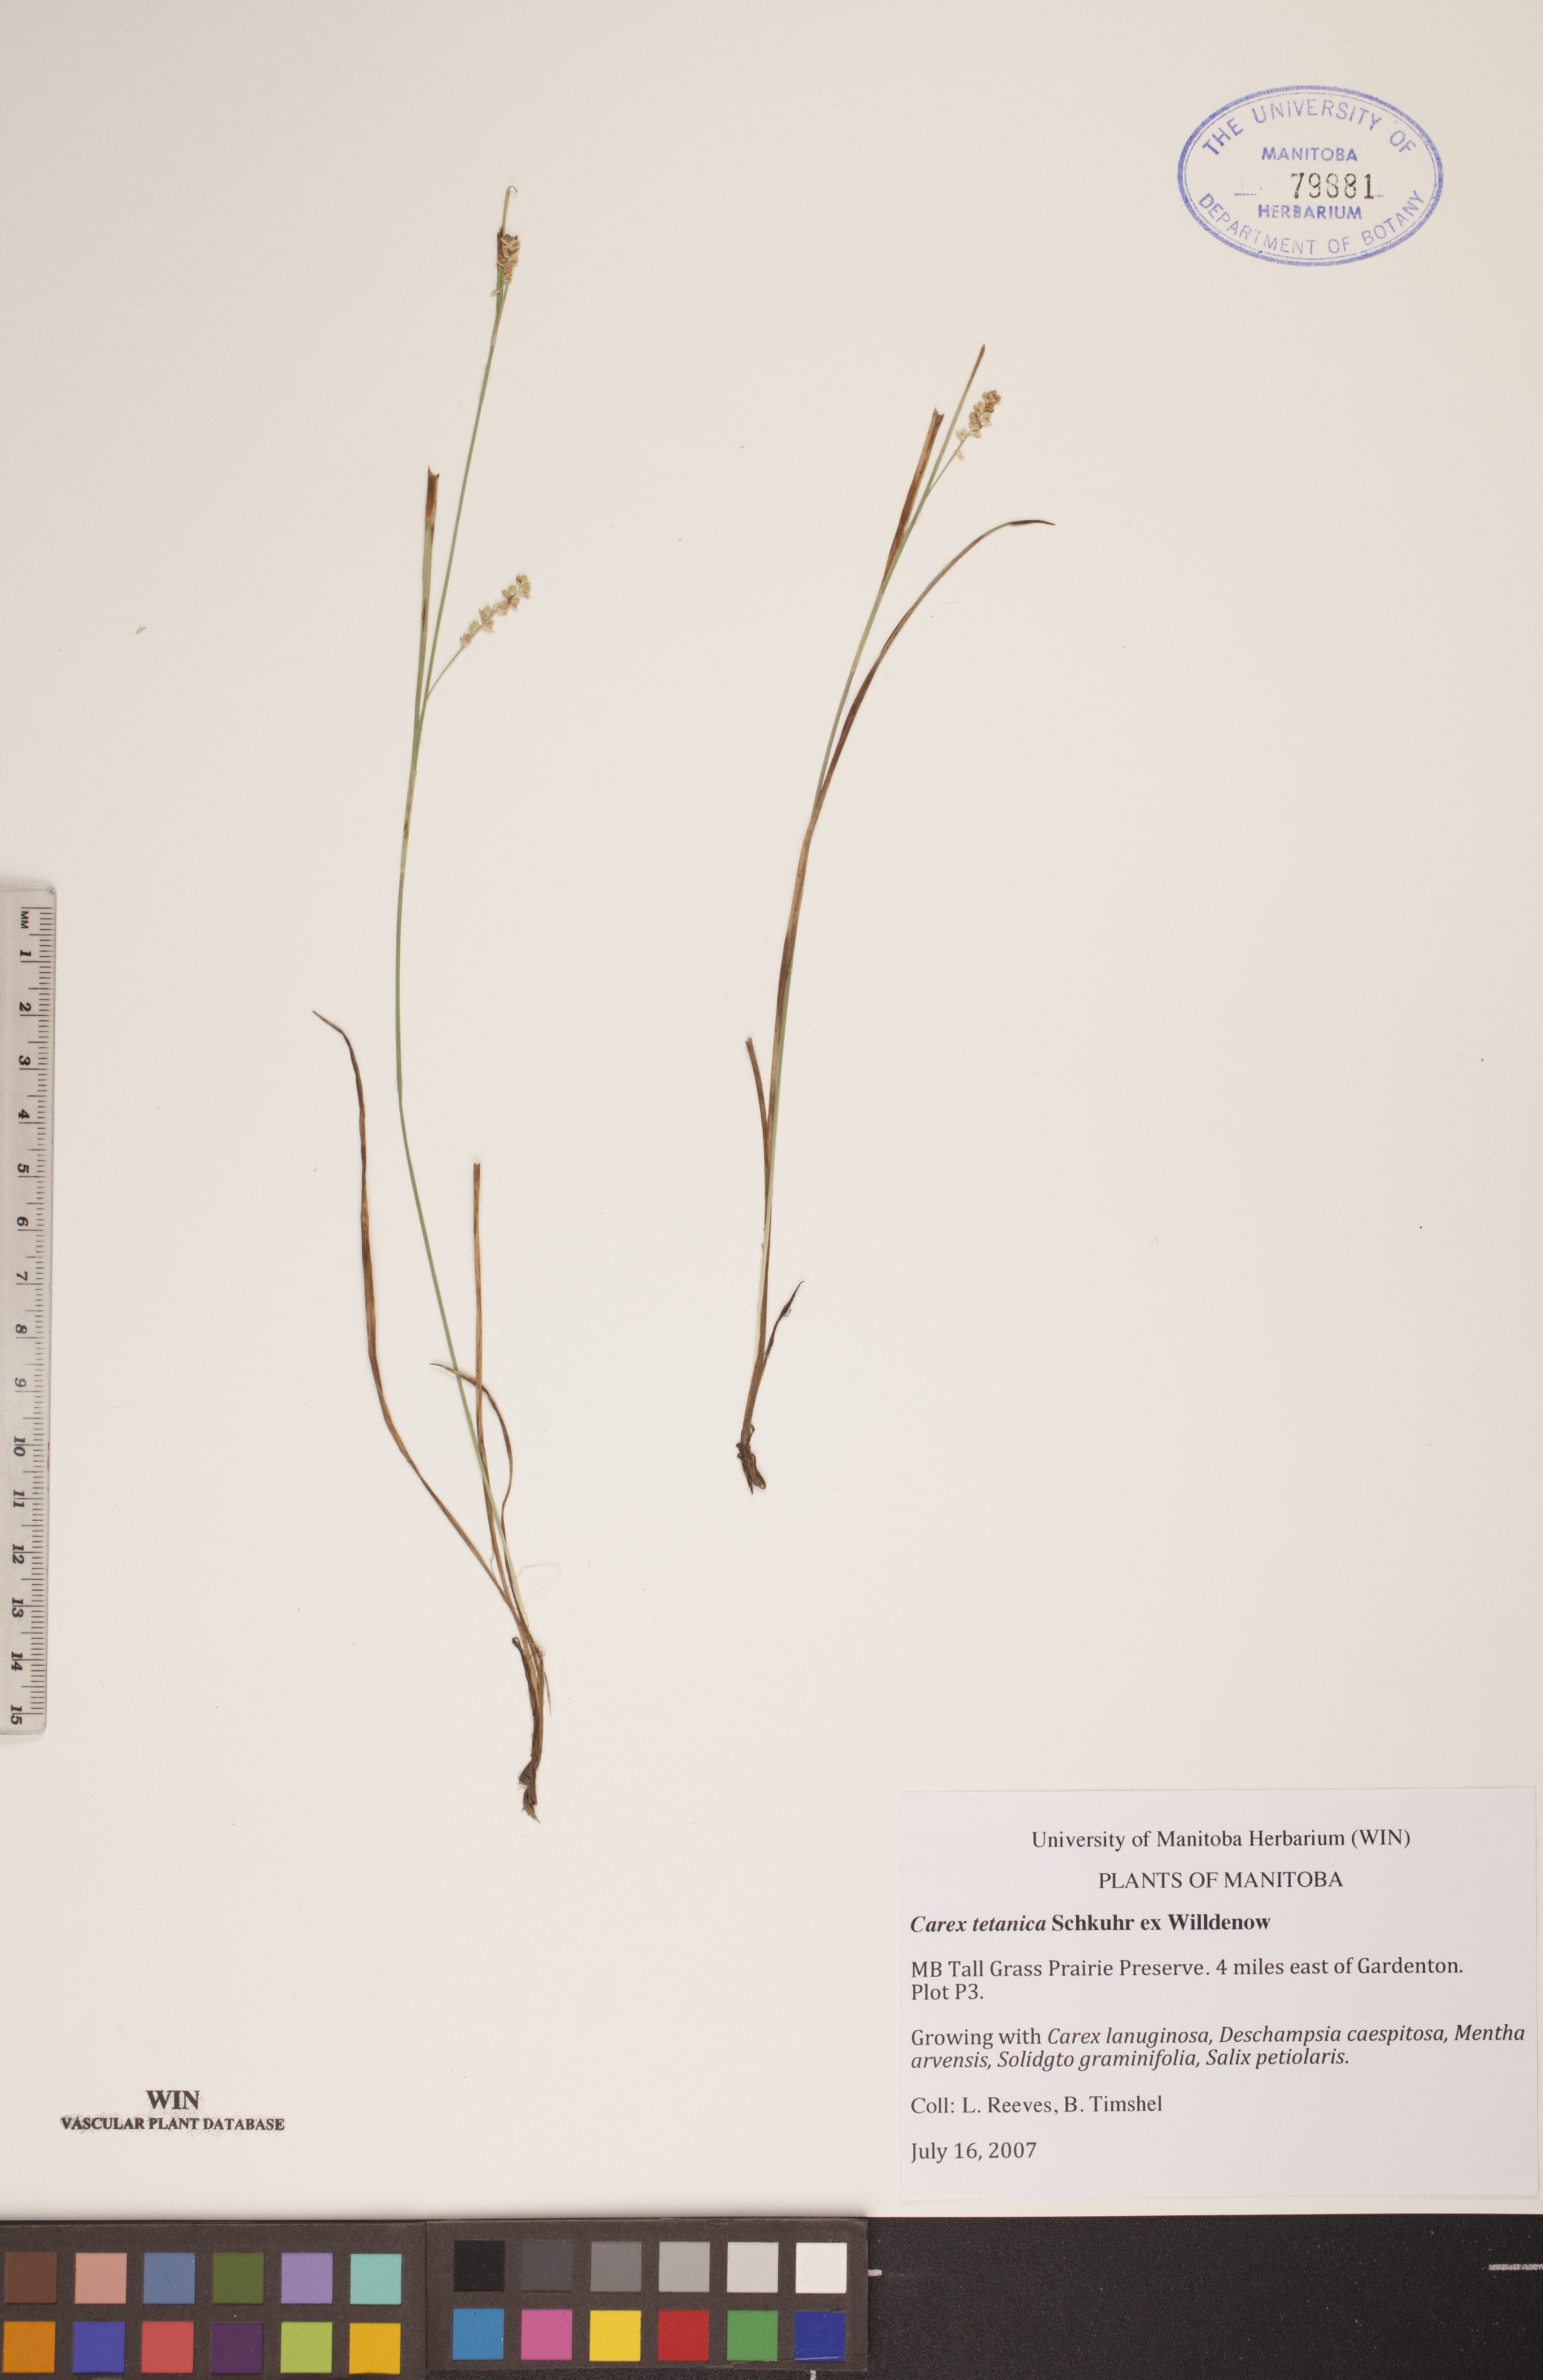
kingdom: Plantae
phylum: Tracheophyta
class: Liliopsida
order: Poales
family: Cyperaceae
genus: Carex
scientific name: Carex tetanica
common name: Rigid sedge
